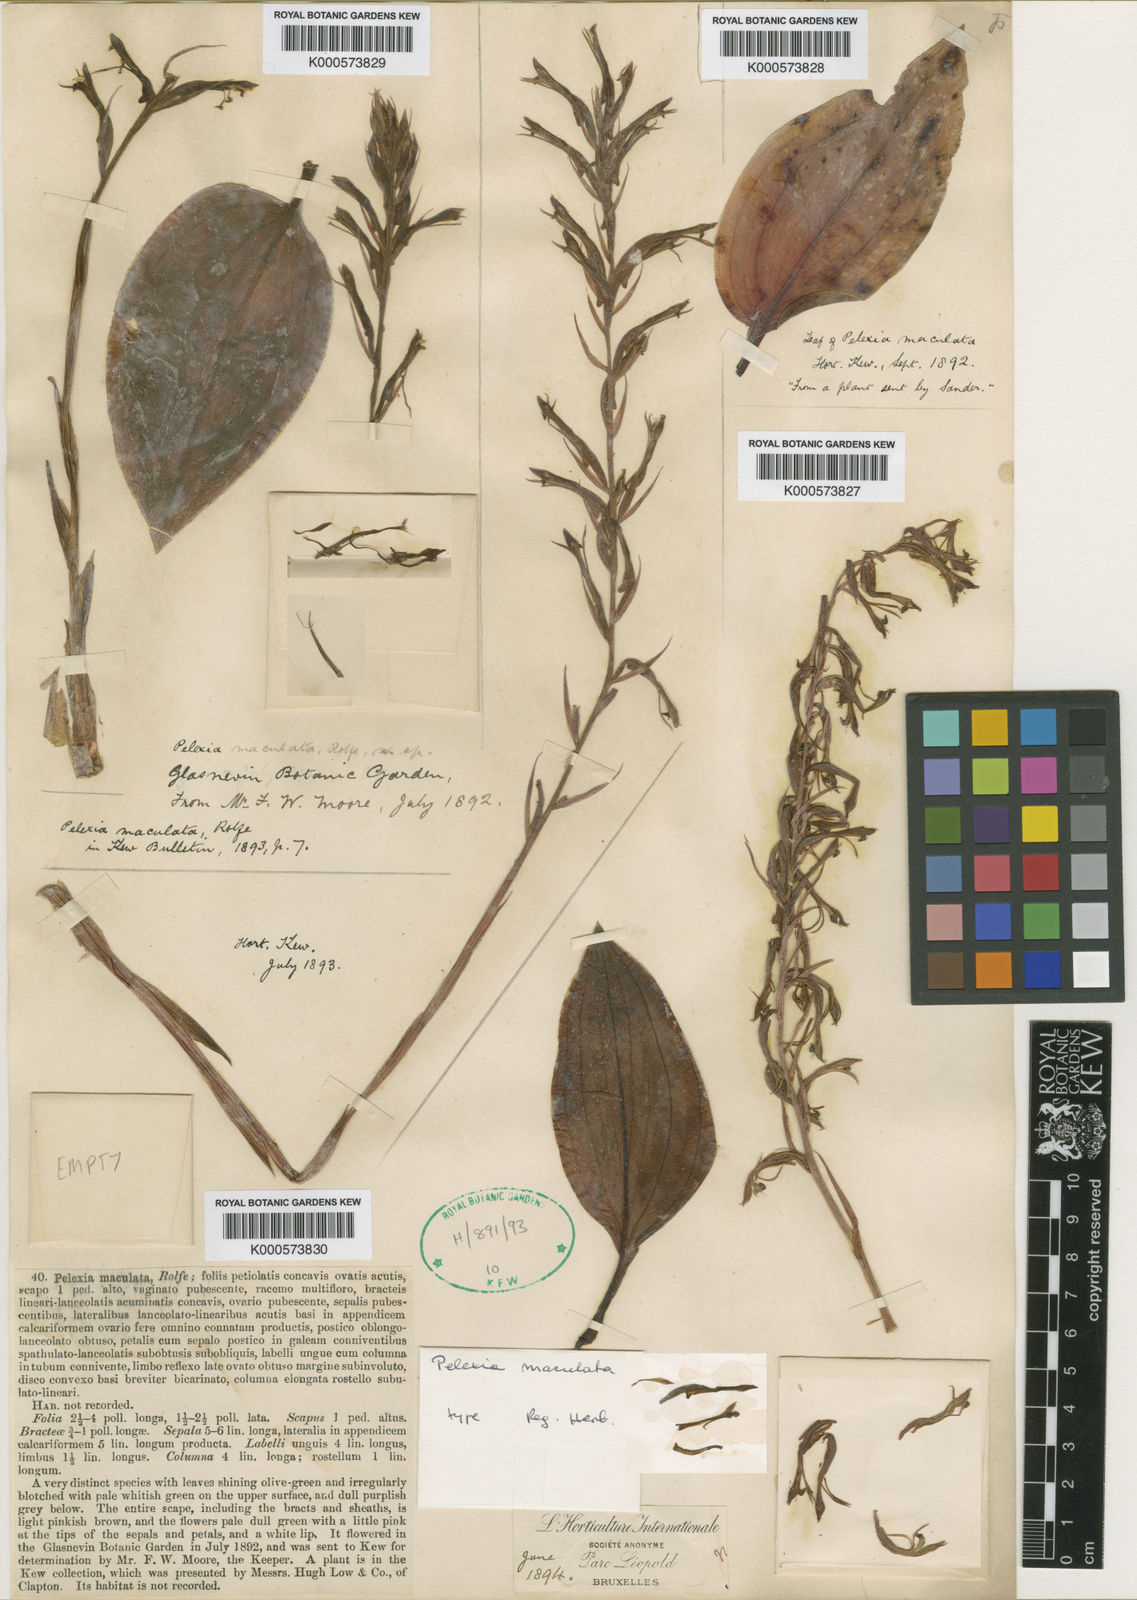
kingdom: Plantae
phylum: Tracheophyta
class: Liliopsida
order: Asparagales
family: Orchidaceae
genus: Pelexia
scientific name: Pelexia maculata
